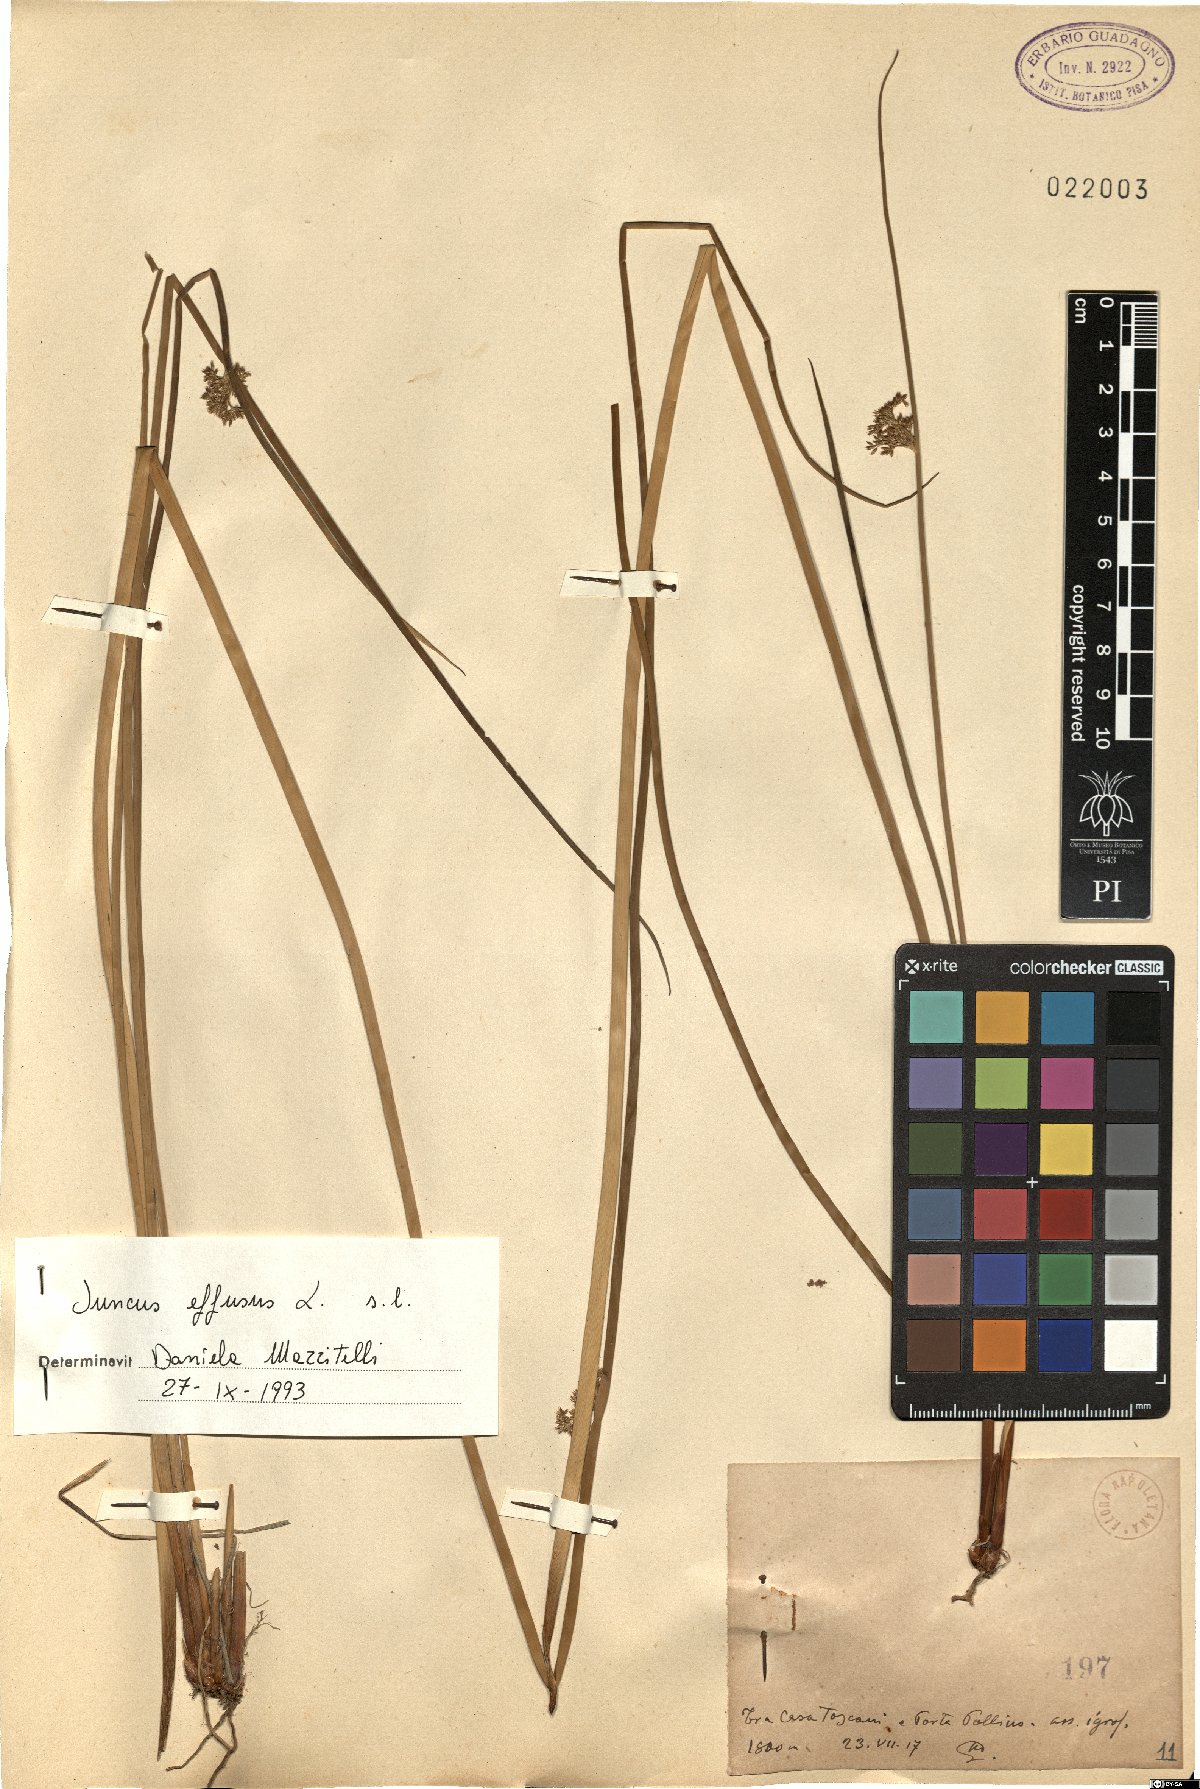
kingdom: Plantae
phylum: Tracheophyta
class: Liliopsida
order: Poales
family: Juncaceae
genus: Juncus
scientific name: Juncus effusus
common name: Soft rush
